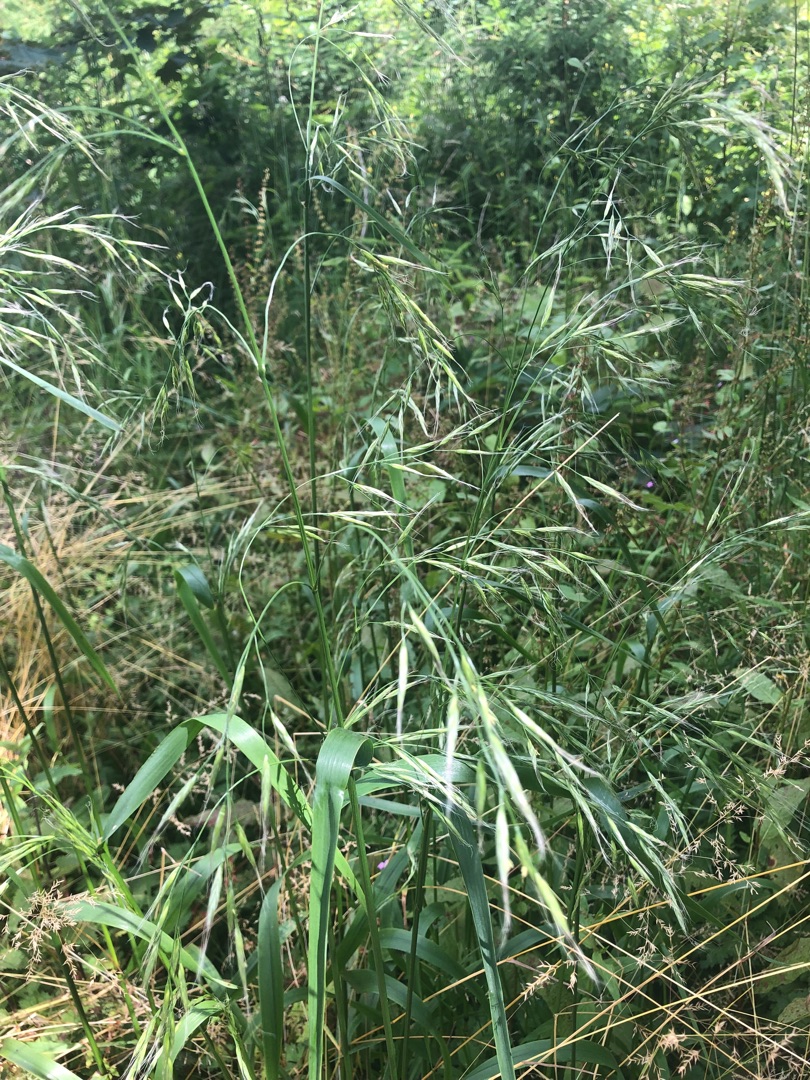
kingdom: Plantae
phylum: Tracheophyta
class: Liliopsida
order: Poales
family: Poaceae
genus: Lolium
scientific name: Lolium giganteum
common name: Kæmpe-svingel
